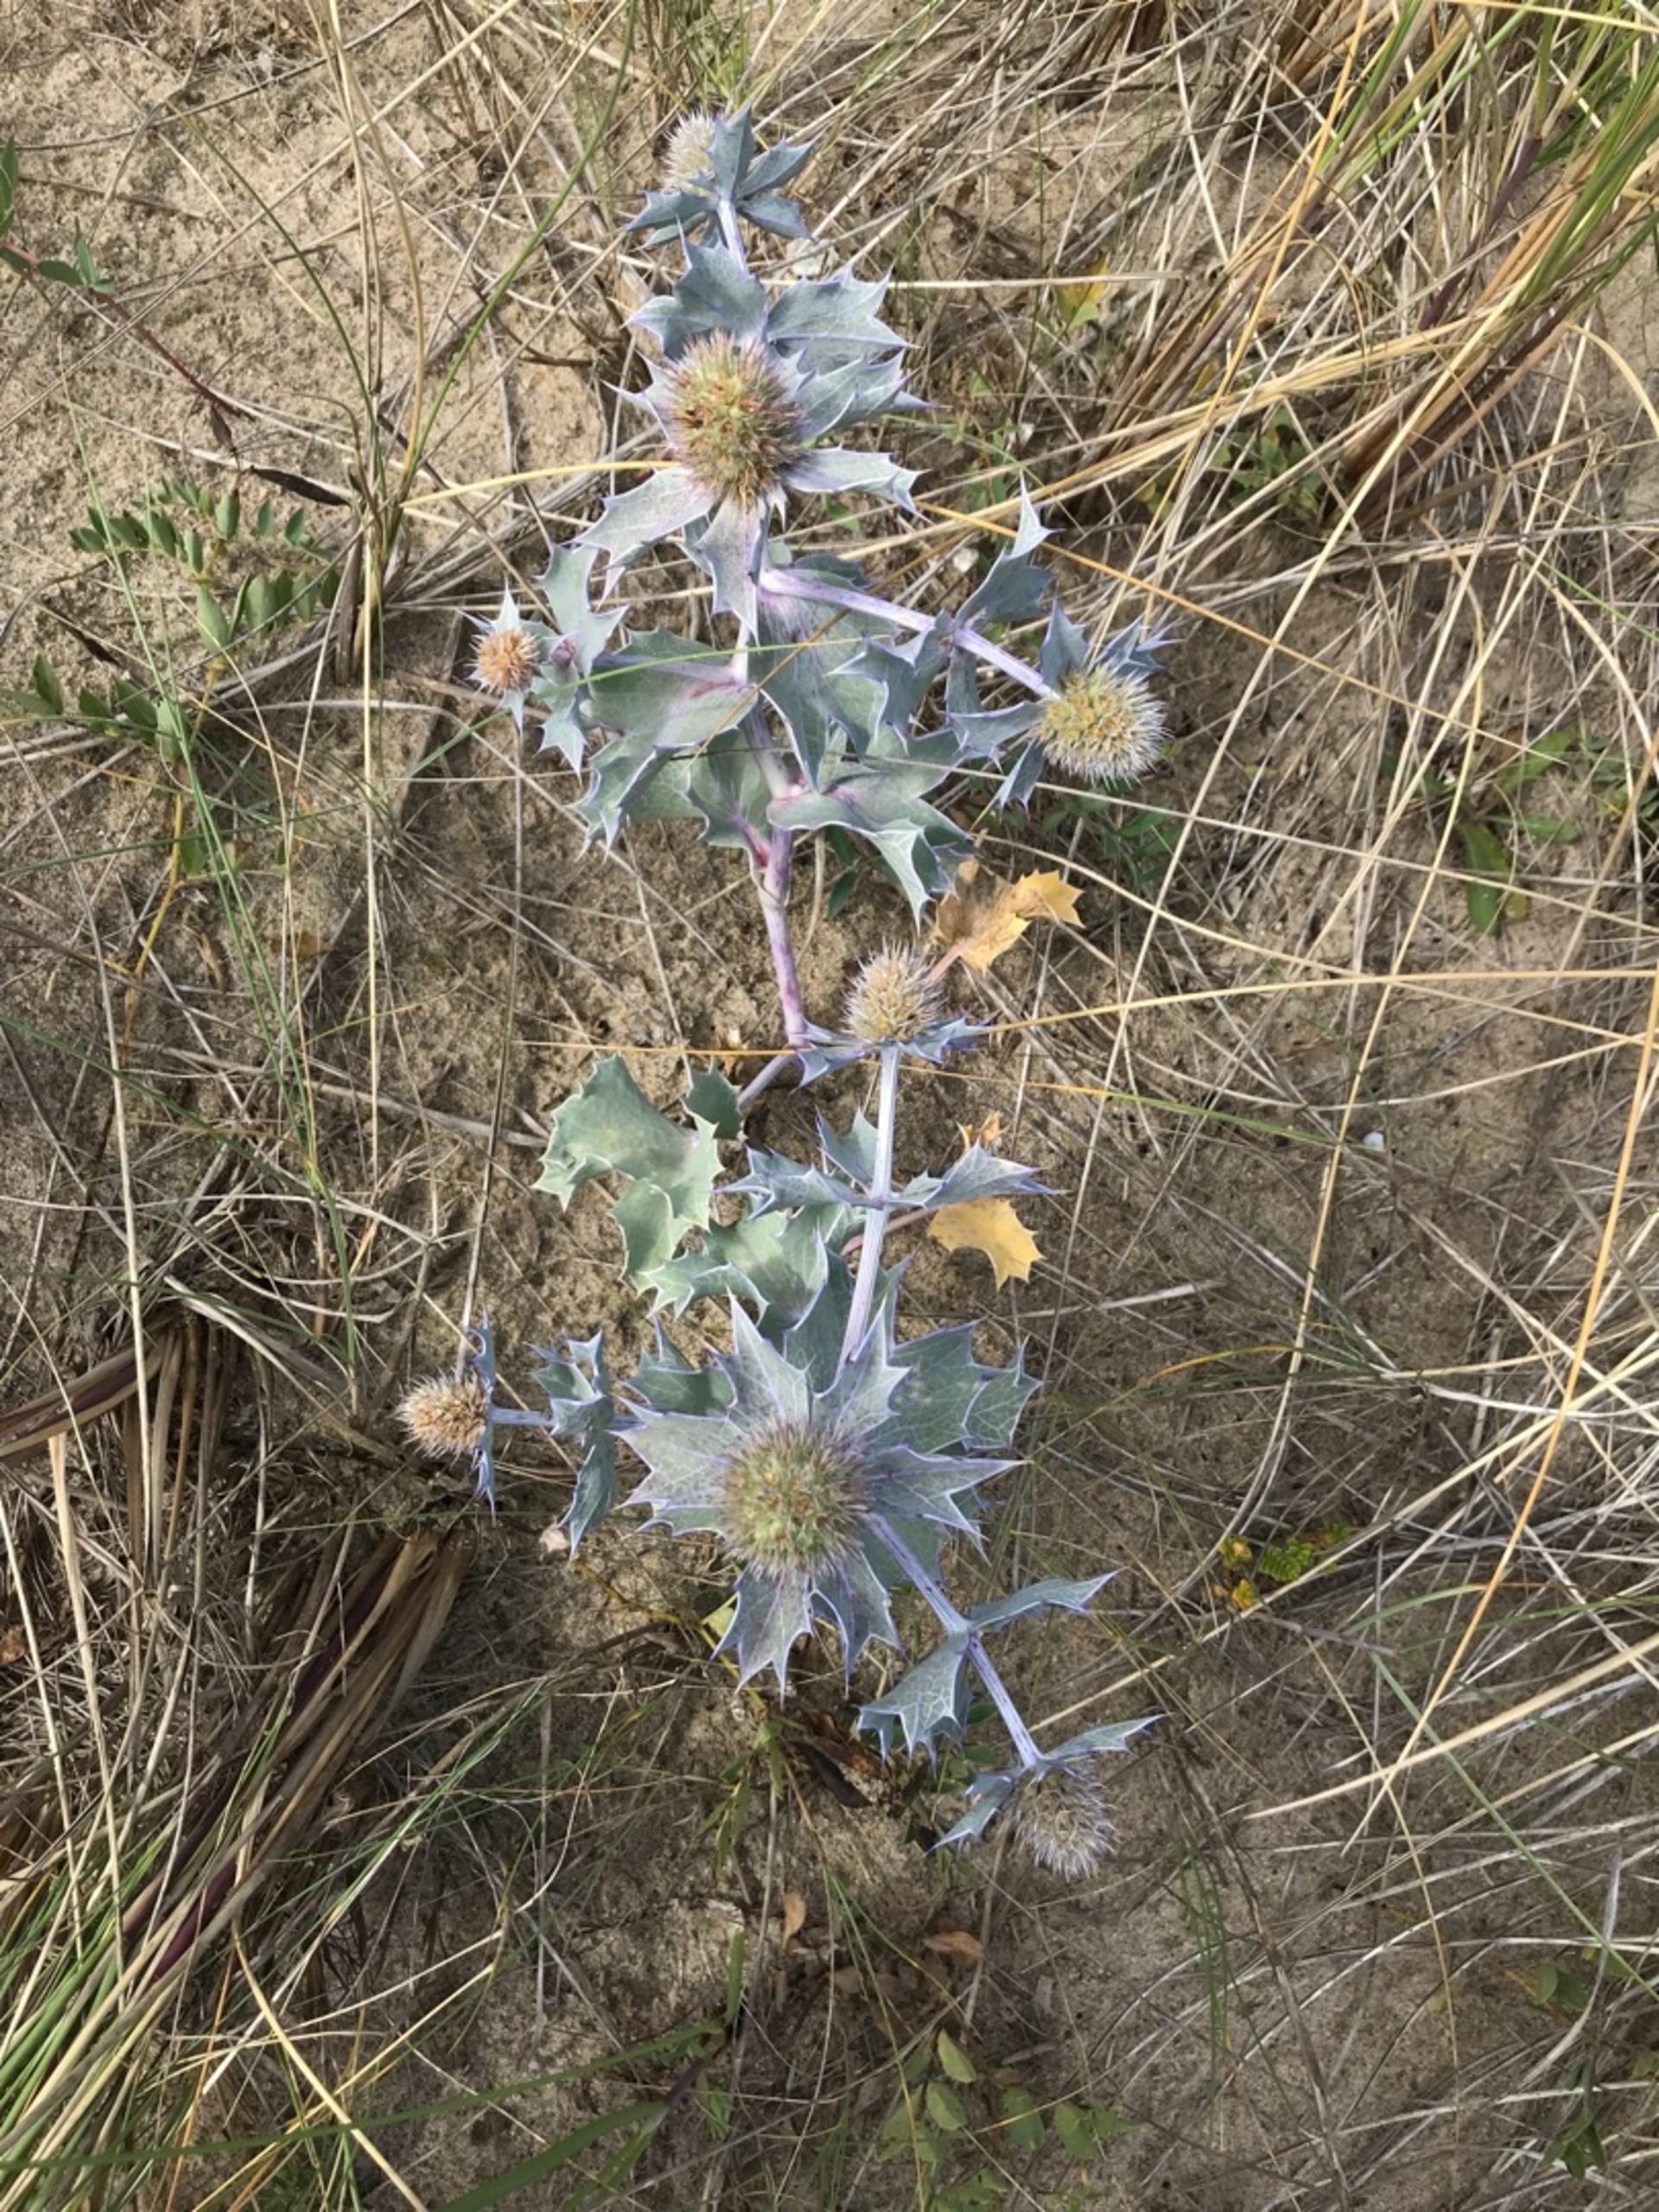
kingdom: Plantae
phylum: Tracheophyta
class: Magnoliopsida
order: Apiales
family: Apiaceae
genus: Eryngium
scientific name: Eryngium maritimum
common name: Strand-mandstro
